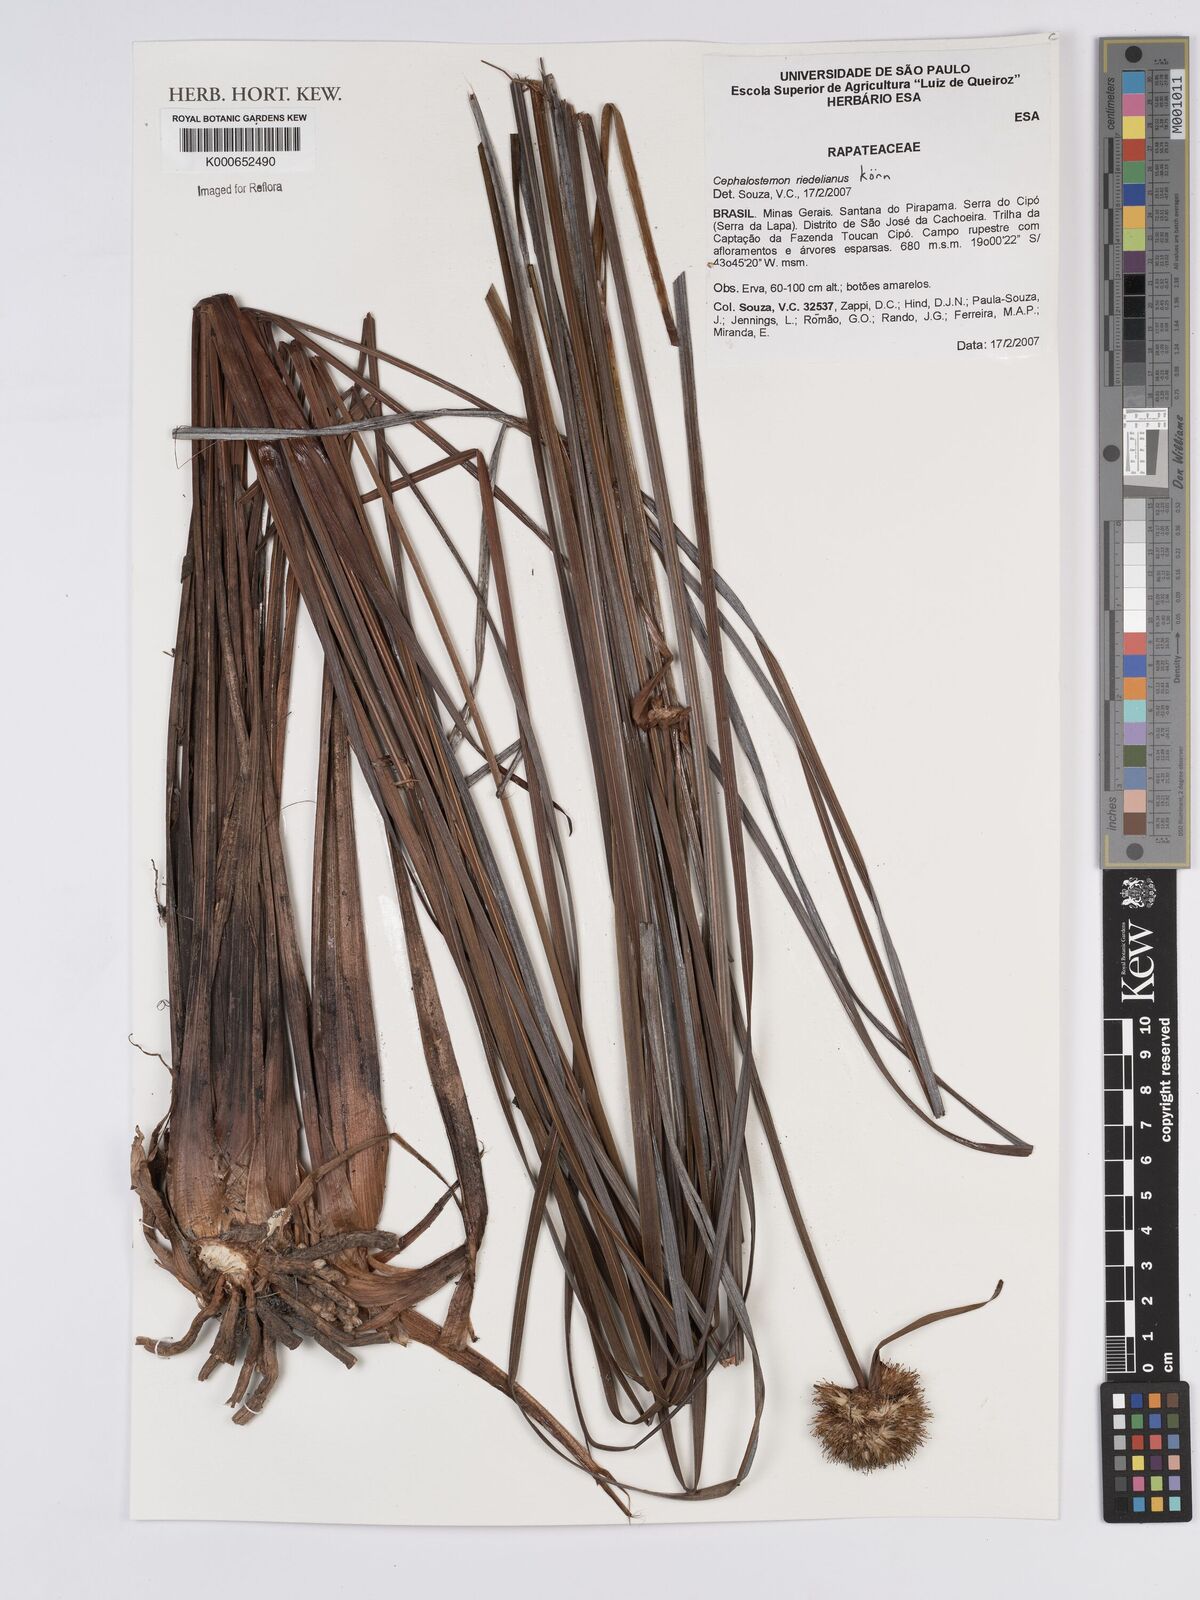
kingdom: Plantae
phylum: Tracheophyta
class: Liliopsida
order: Poales
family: Rapateaceae
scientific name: Rapateaceae
